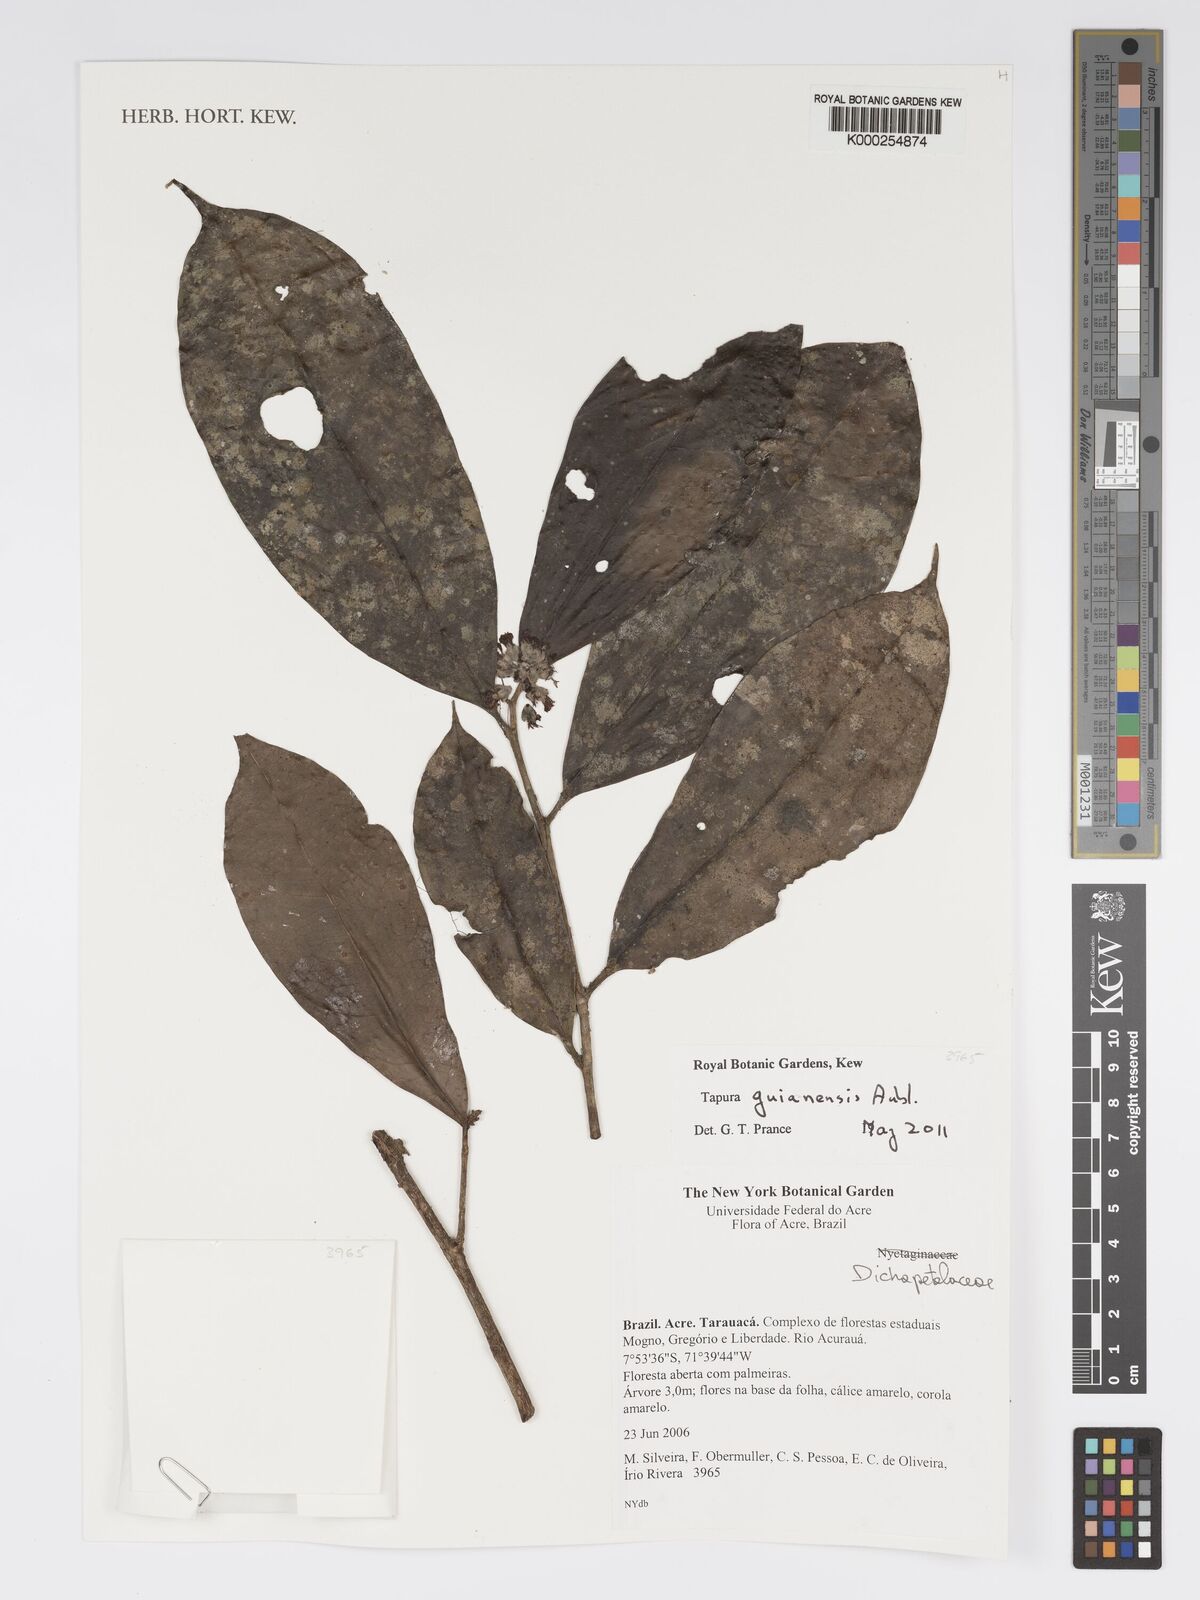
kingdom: Plantae
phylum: Tracheophyta
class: Magnoliopsida
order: Malpighiales
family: Dichapetalaceae
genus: Tapura
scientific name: Tapura guianensis
